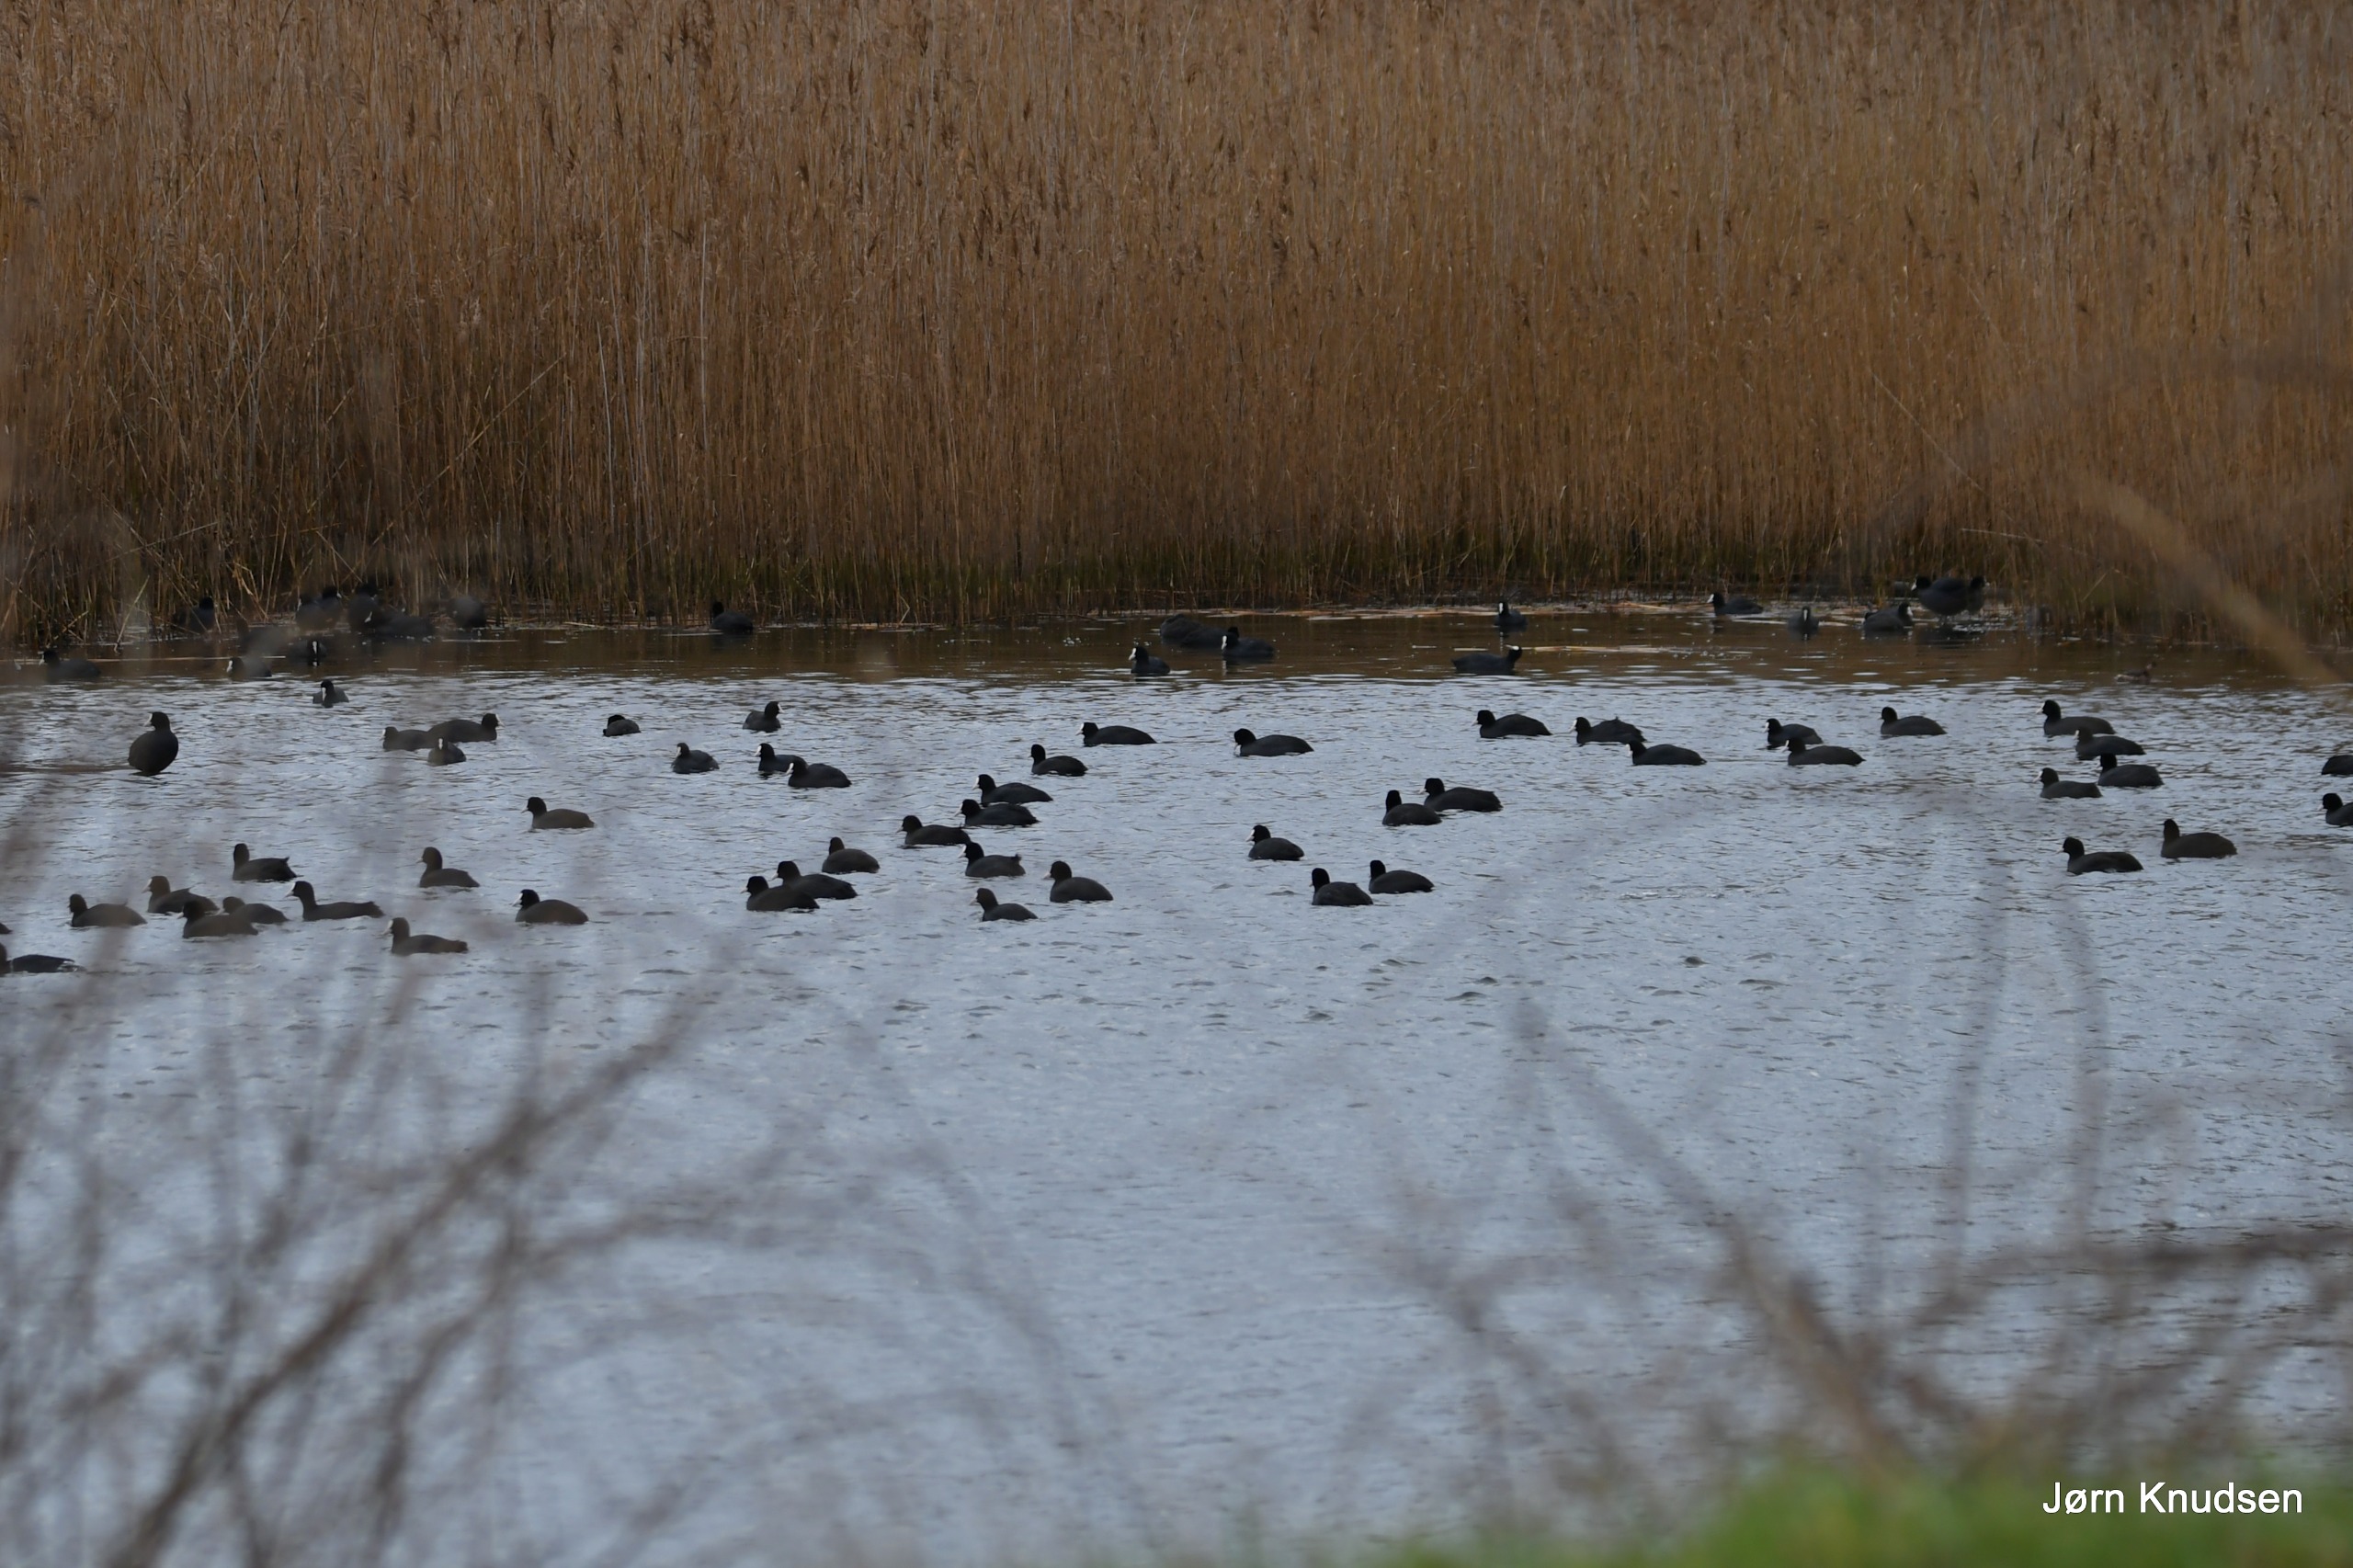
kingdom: Animalia
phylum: Chordata
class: Aves
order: Gruiformes
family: Rallidae
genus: Fulica
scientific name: Fulica atra
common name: Blishøne
